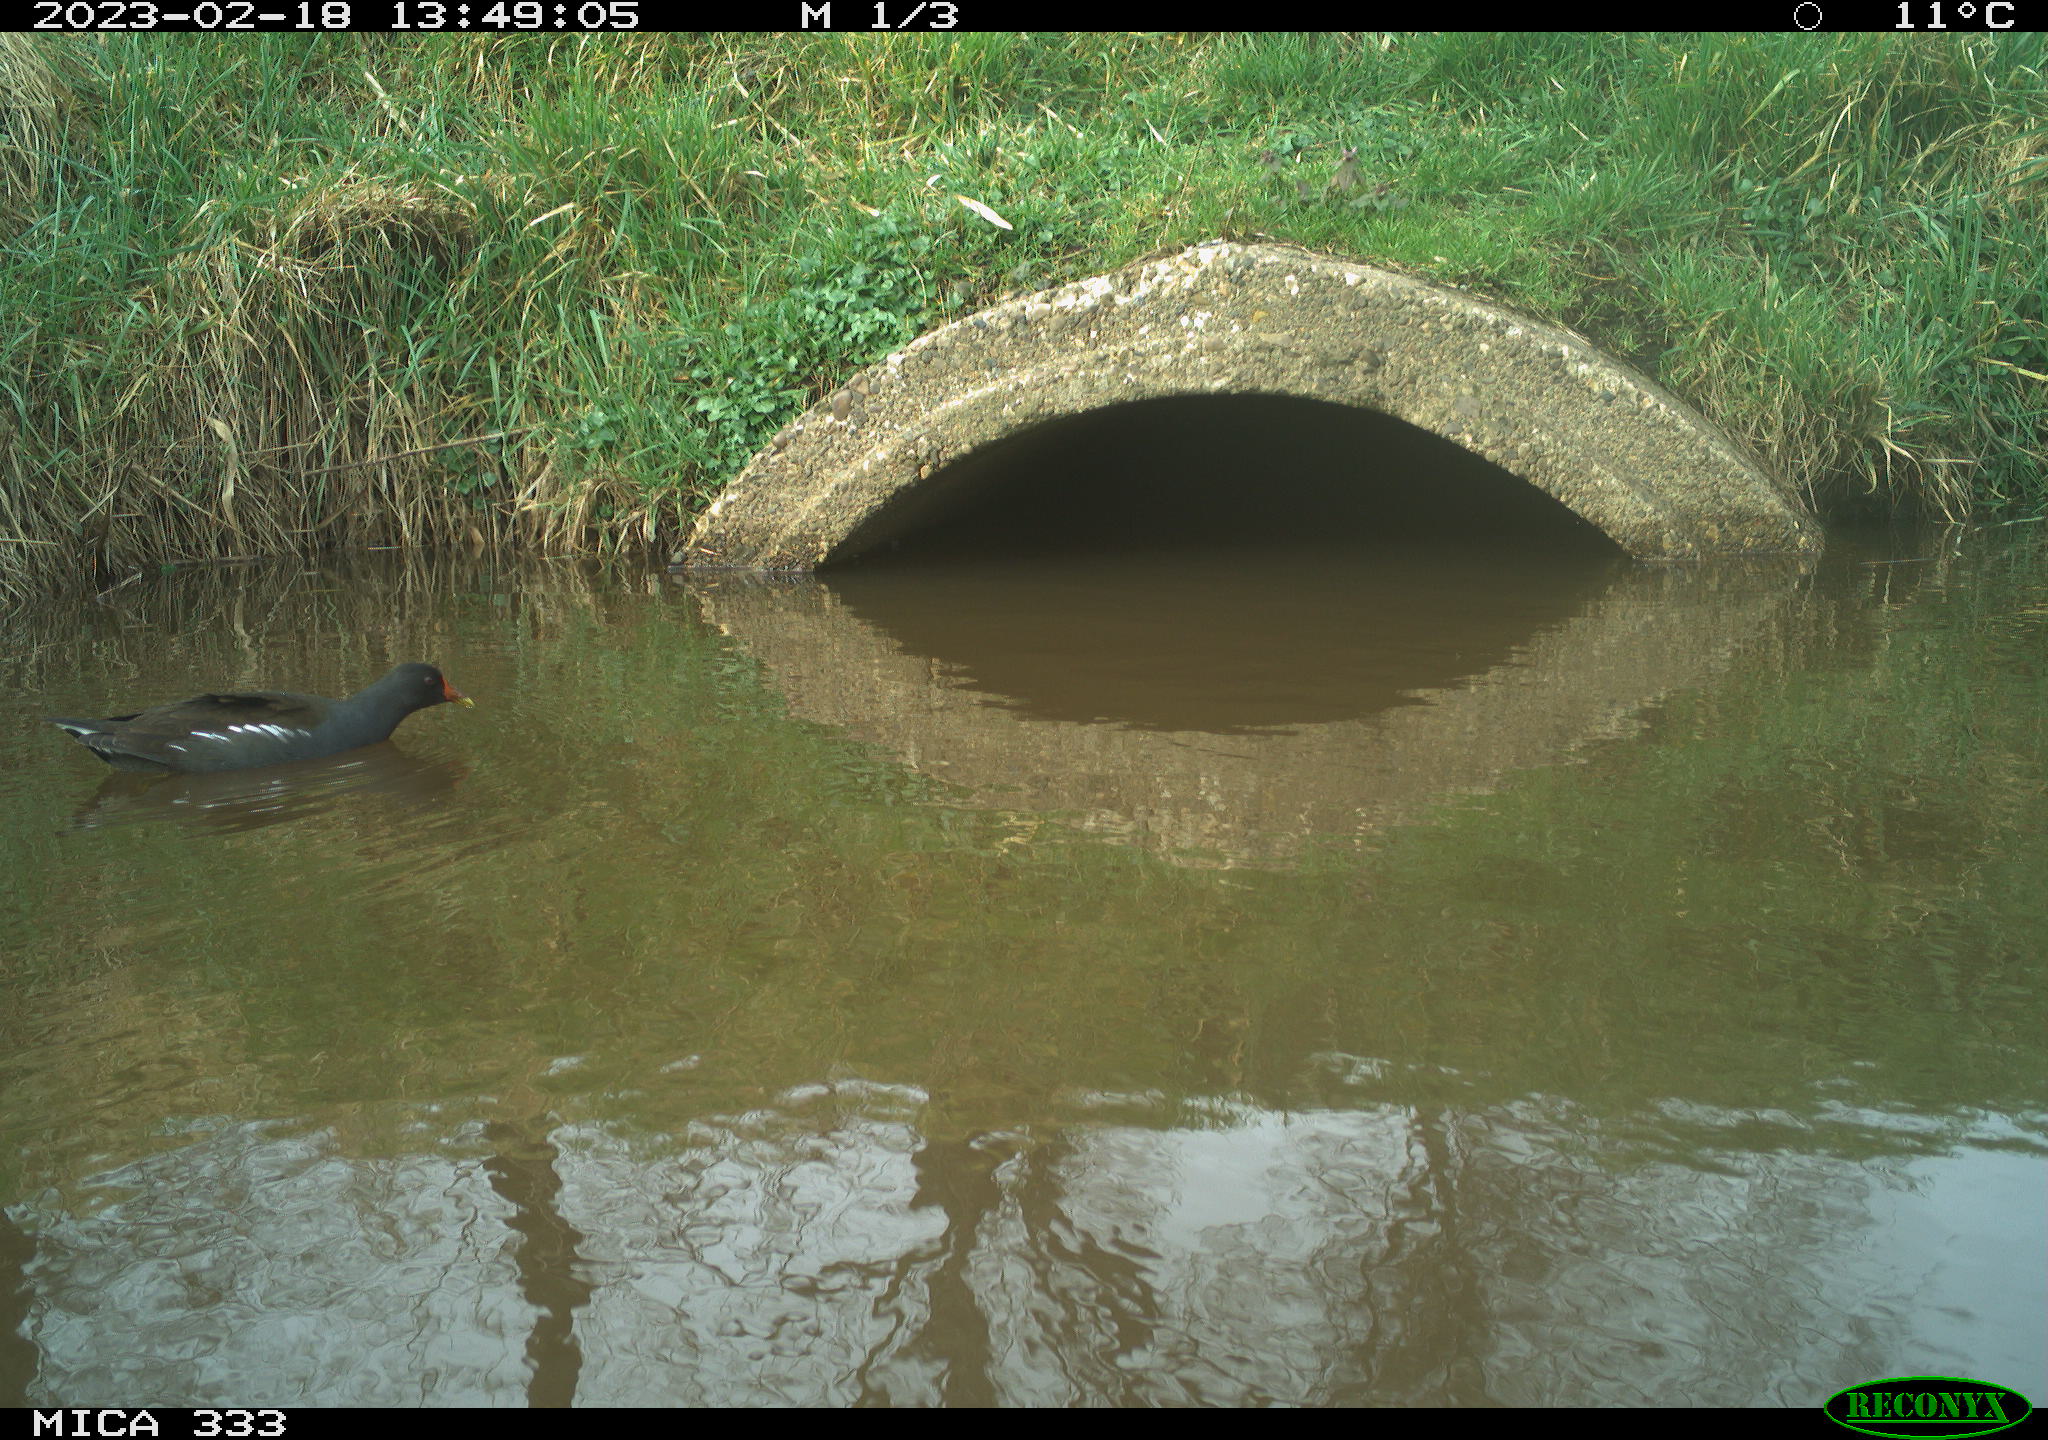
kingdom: Animalia
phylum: Chordata
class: Aves
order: Gruiformes
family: Rallidae
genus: Gallinula
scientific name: Gallinula chloropus
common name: Common moorhen
